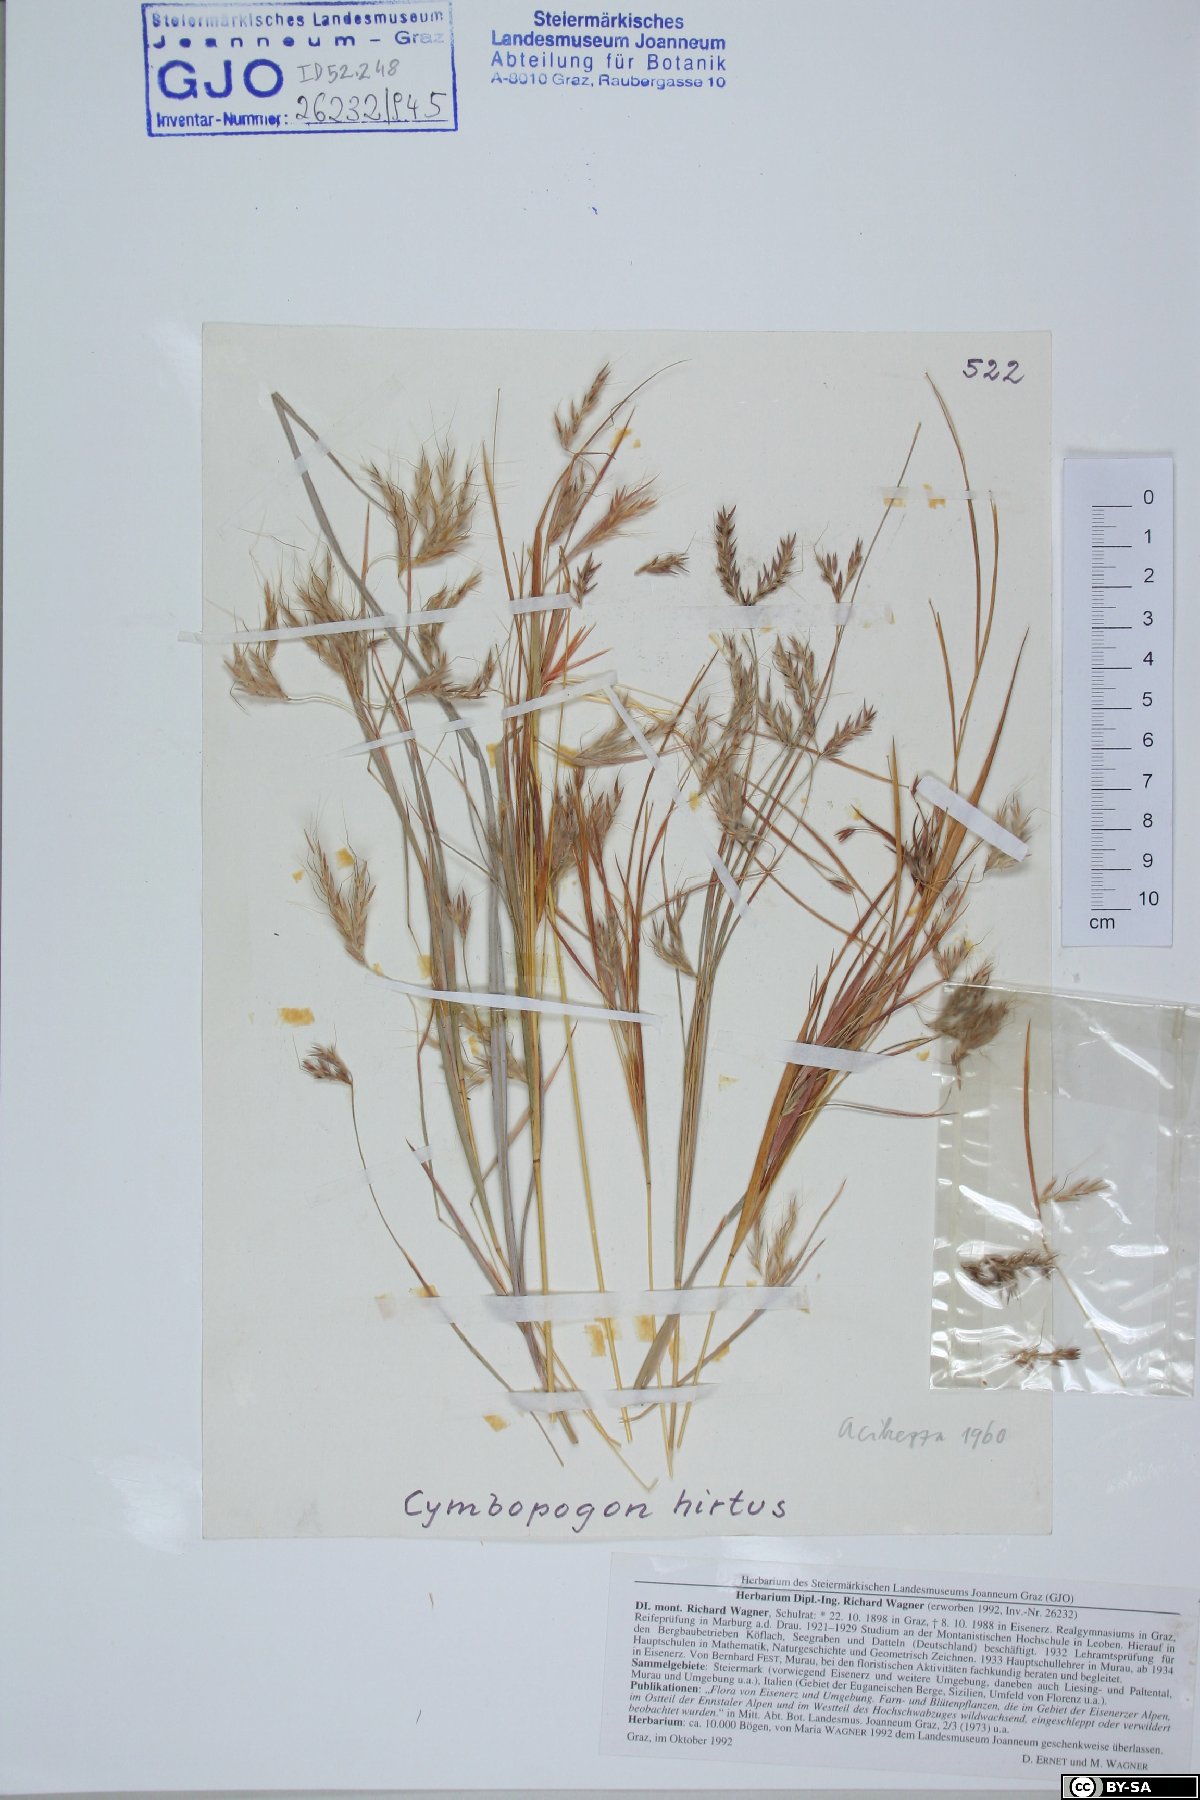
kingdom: Plantae
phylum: Tracheophyta
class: Liliopsida
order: Poales
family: Poaceae
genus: Hyparrhenia
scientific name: Hyparrhenia hirta
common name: Thatching grass
